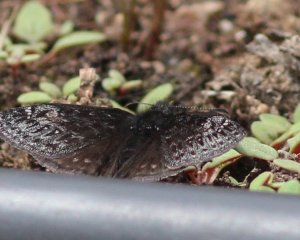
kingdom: Animalia
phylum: Arthropoda
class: Insecta
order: Lepidoptera
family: Hesperiidae
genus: Gesta
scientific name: Gesta
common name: Persius Duskywing
